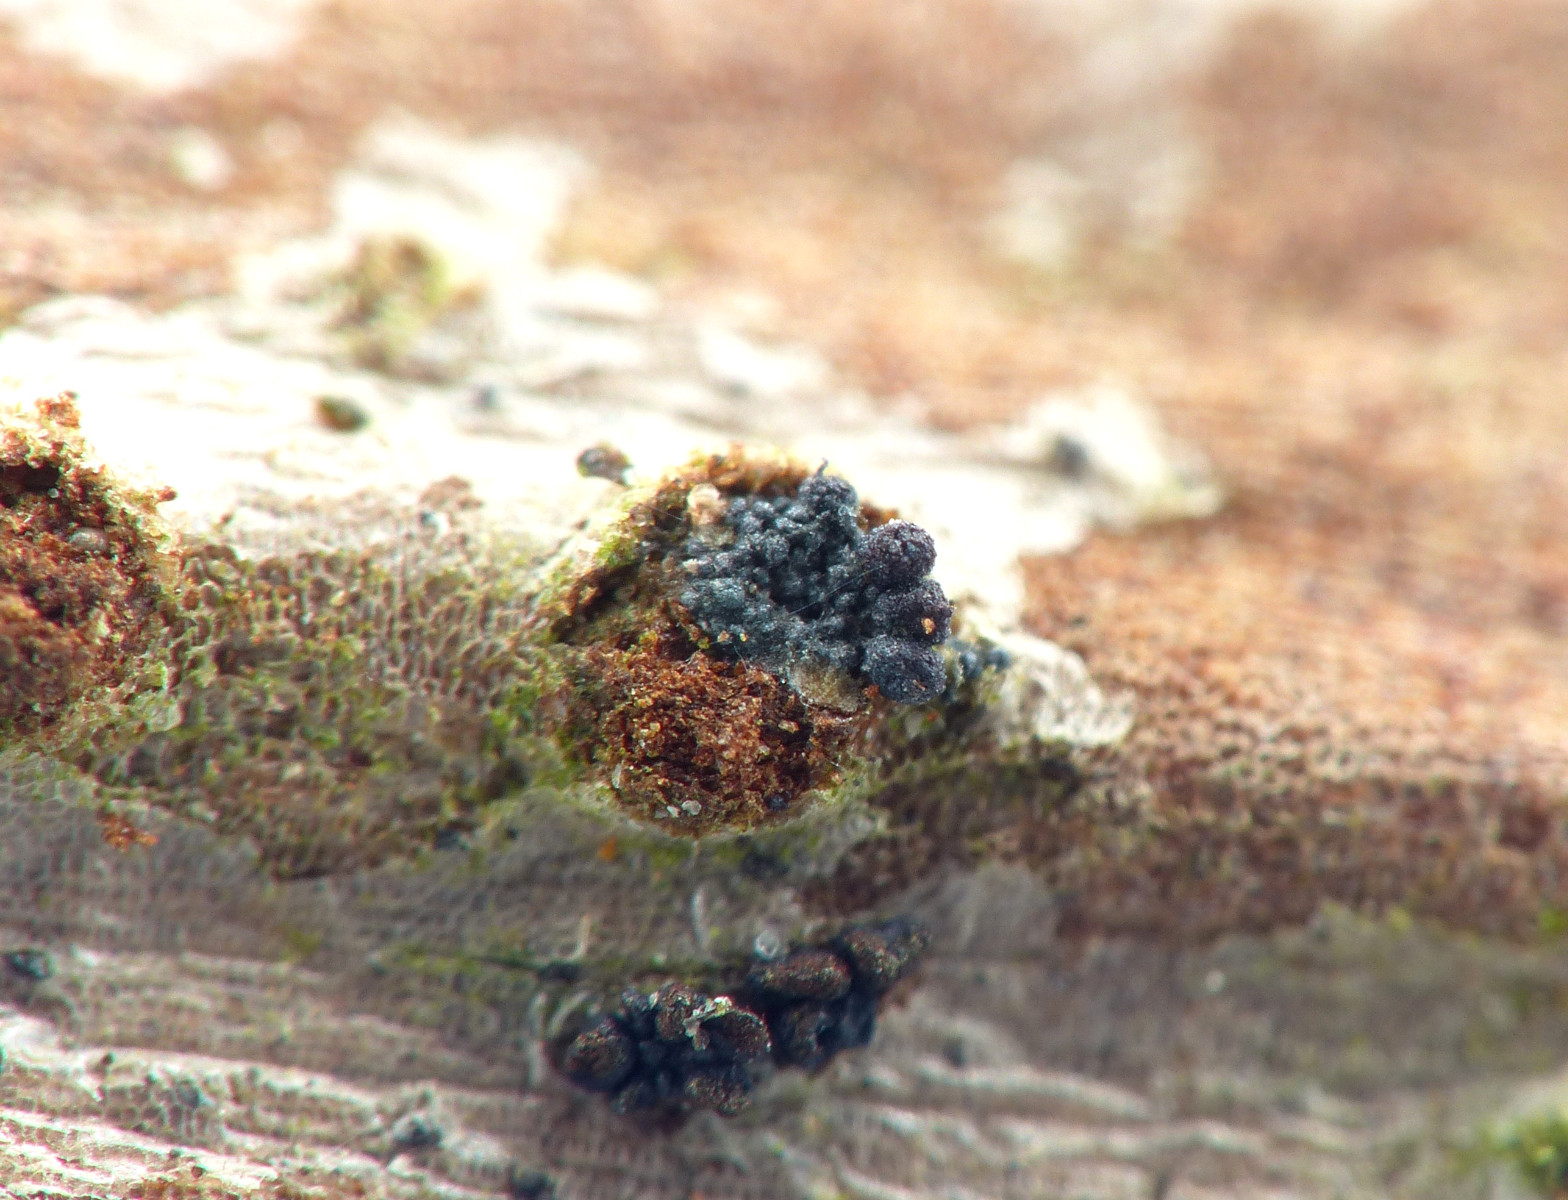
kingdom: Fungi
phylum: Ascomycota
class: Sordariomycetes
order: Hypocreales
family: Nectriaceae
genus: Fusarium
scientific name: Fusarium roseum
